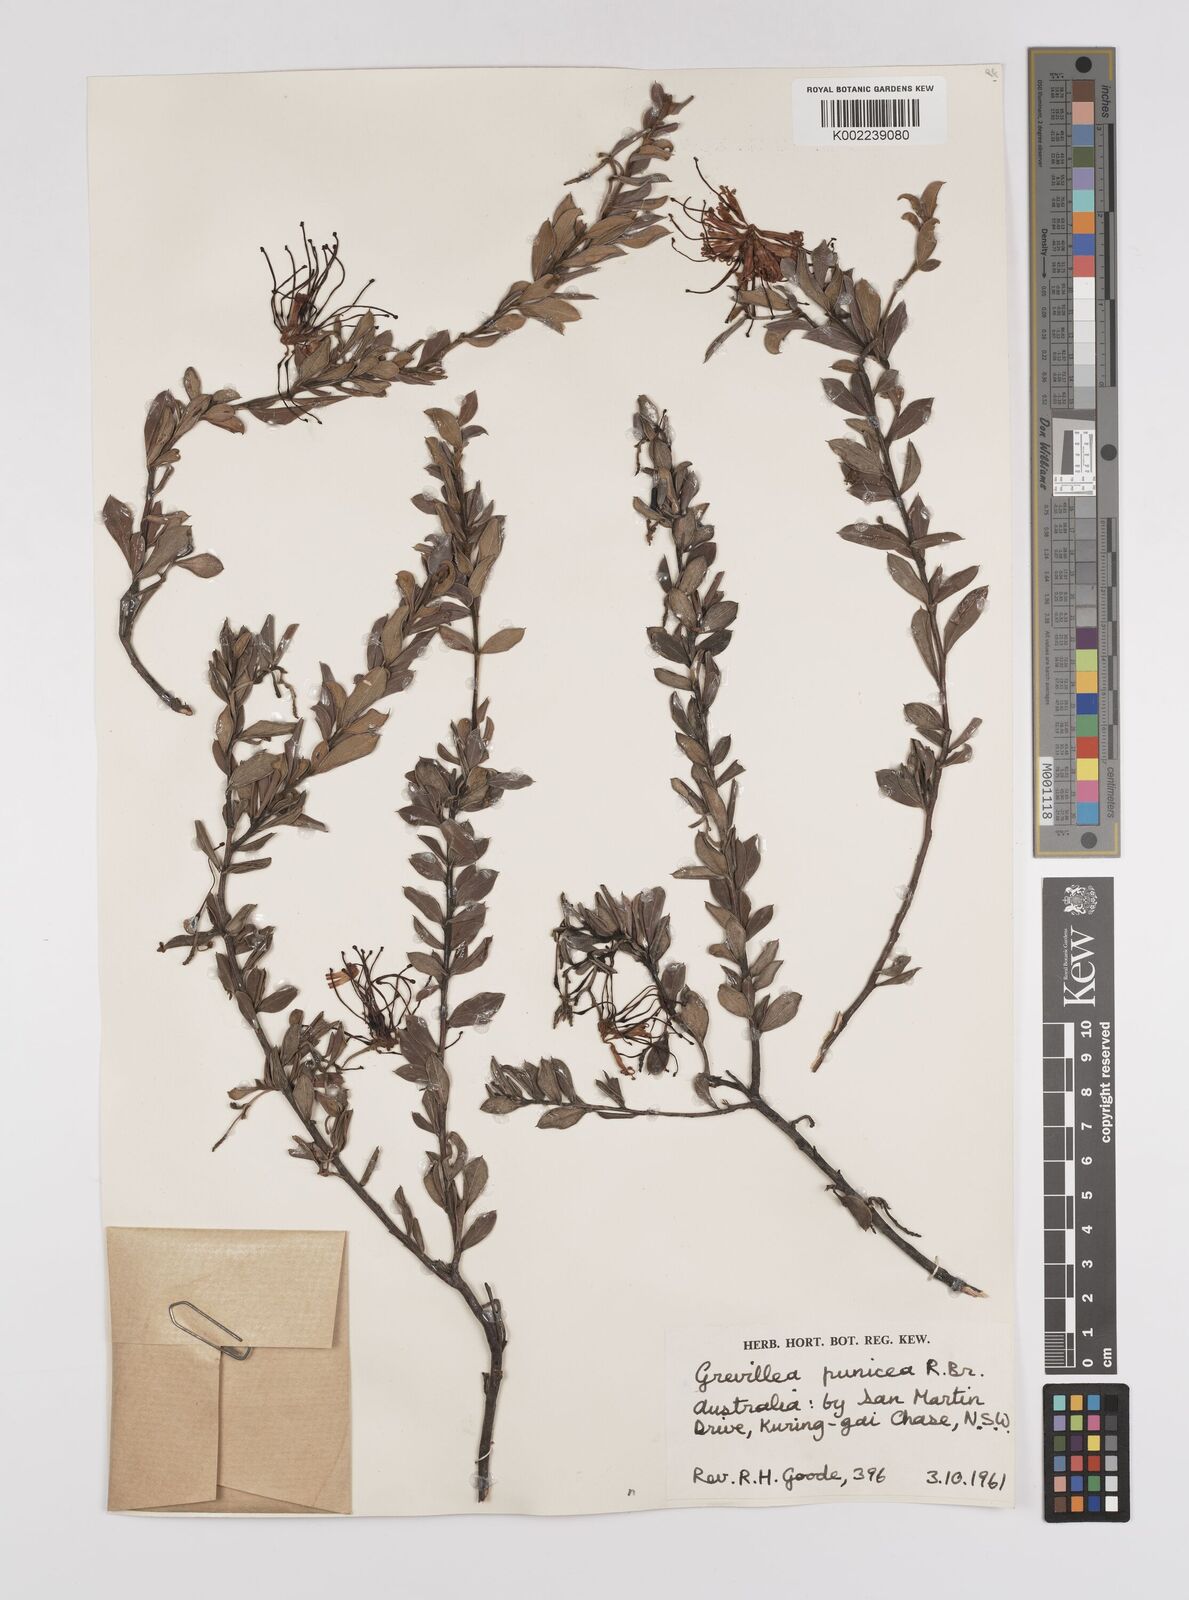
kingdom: Plantae
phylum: Tracheophyta
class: Magnoliopsida
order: Proteales
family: Proteaceae
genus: Grevillea
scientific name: Grevillea speciosa
